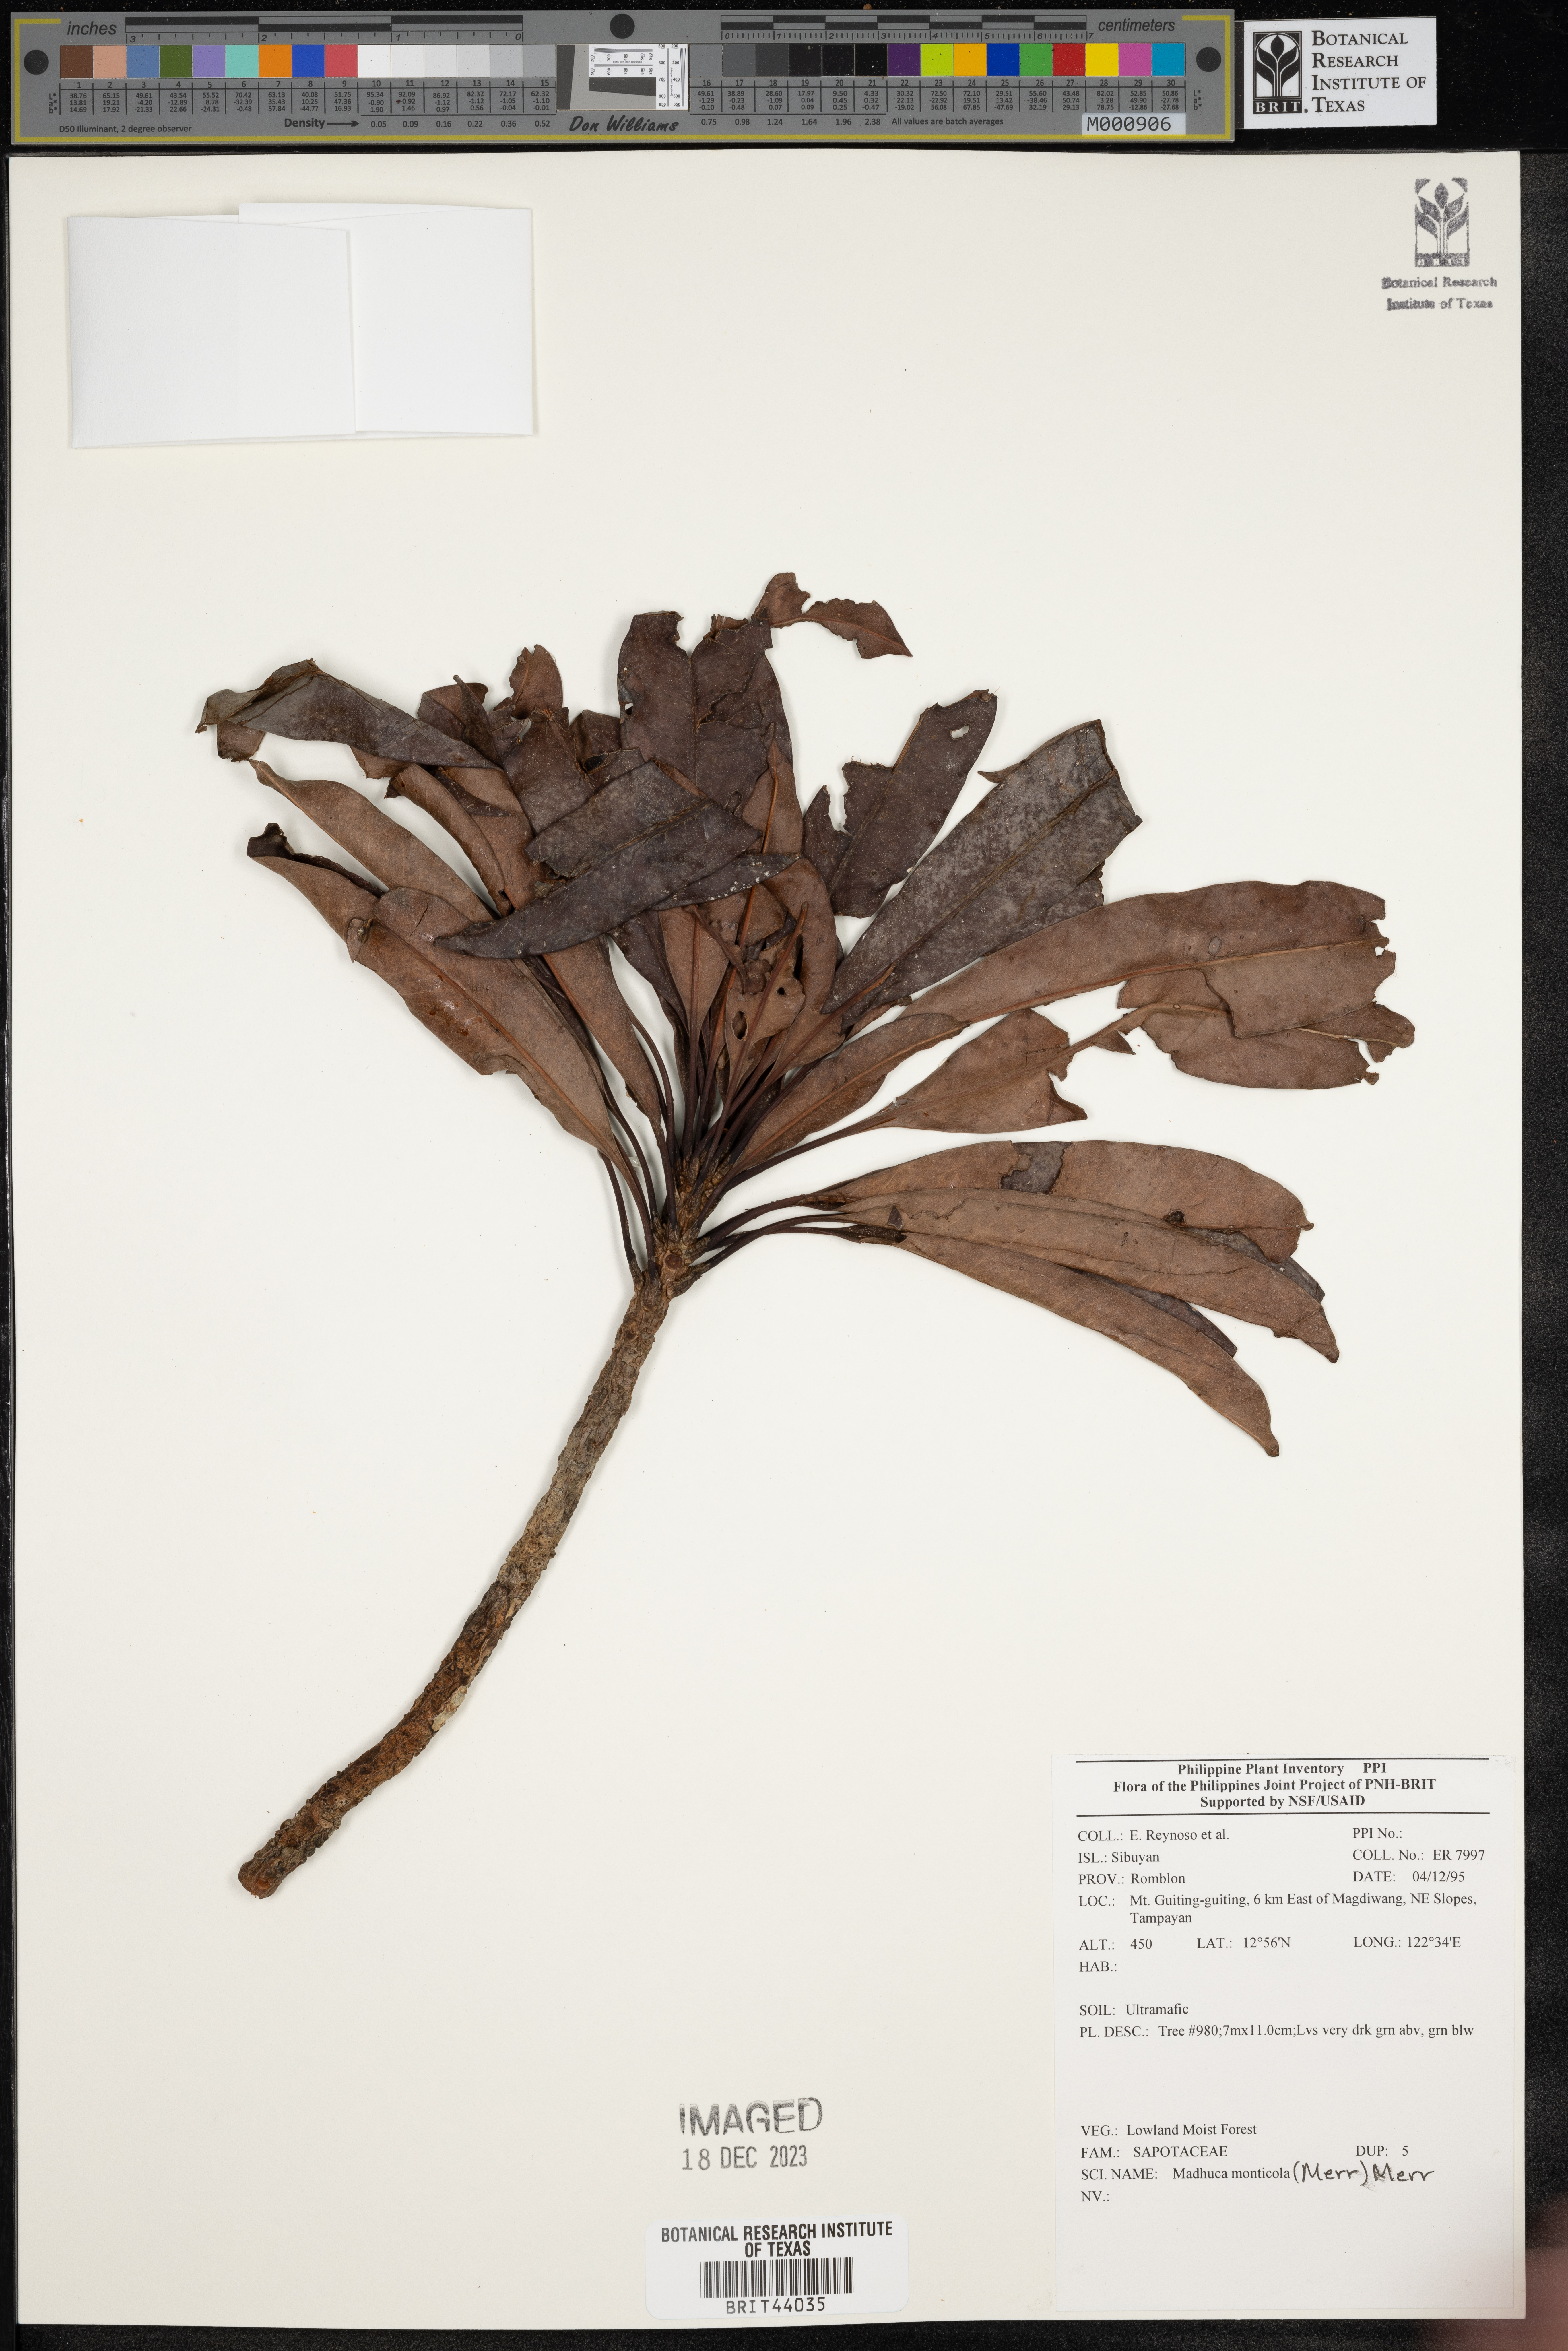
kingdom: Plantae
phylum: Tracheophyta
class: Magnoliopsida
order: Ericales
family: Sapotaceae
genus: Madhuca
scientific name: Madhuca
